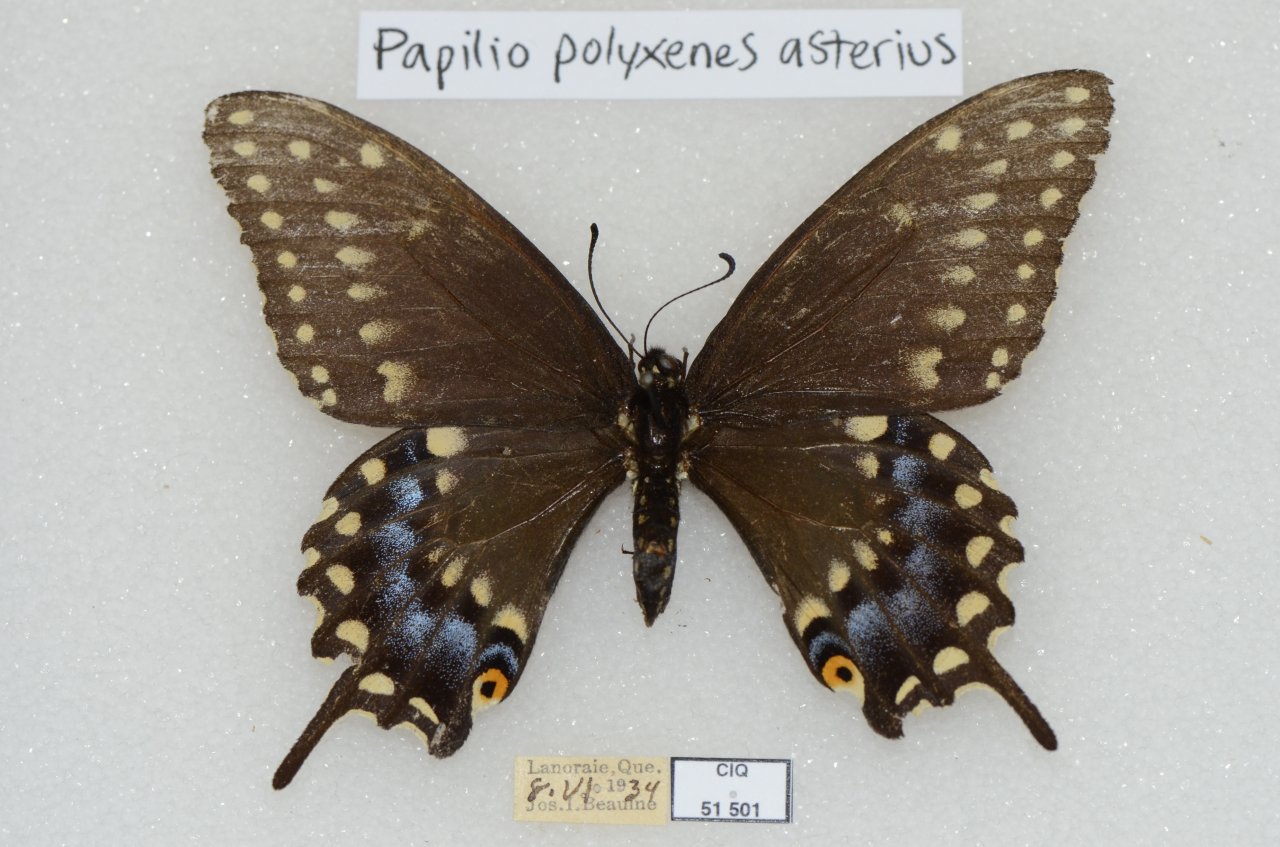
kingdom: Animalia
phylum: Arthropoda
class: Insecta
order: Lepidoptera
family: Papilionidae
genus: Papilio
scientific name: Papilio polyxenes
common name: Black Swallowtail
